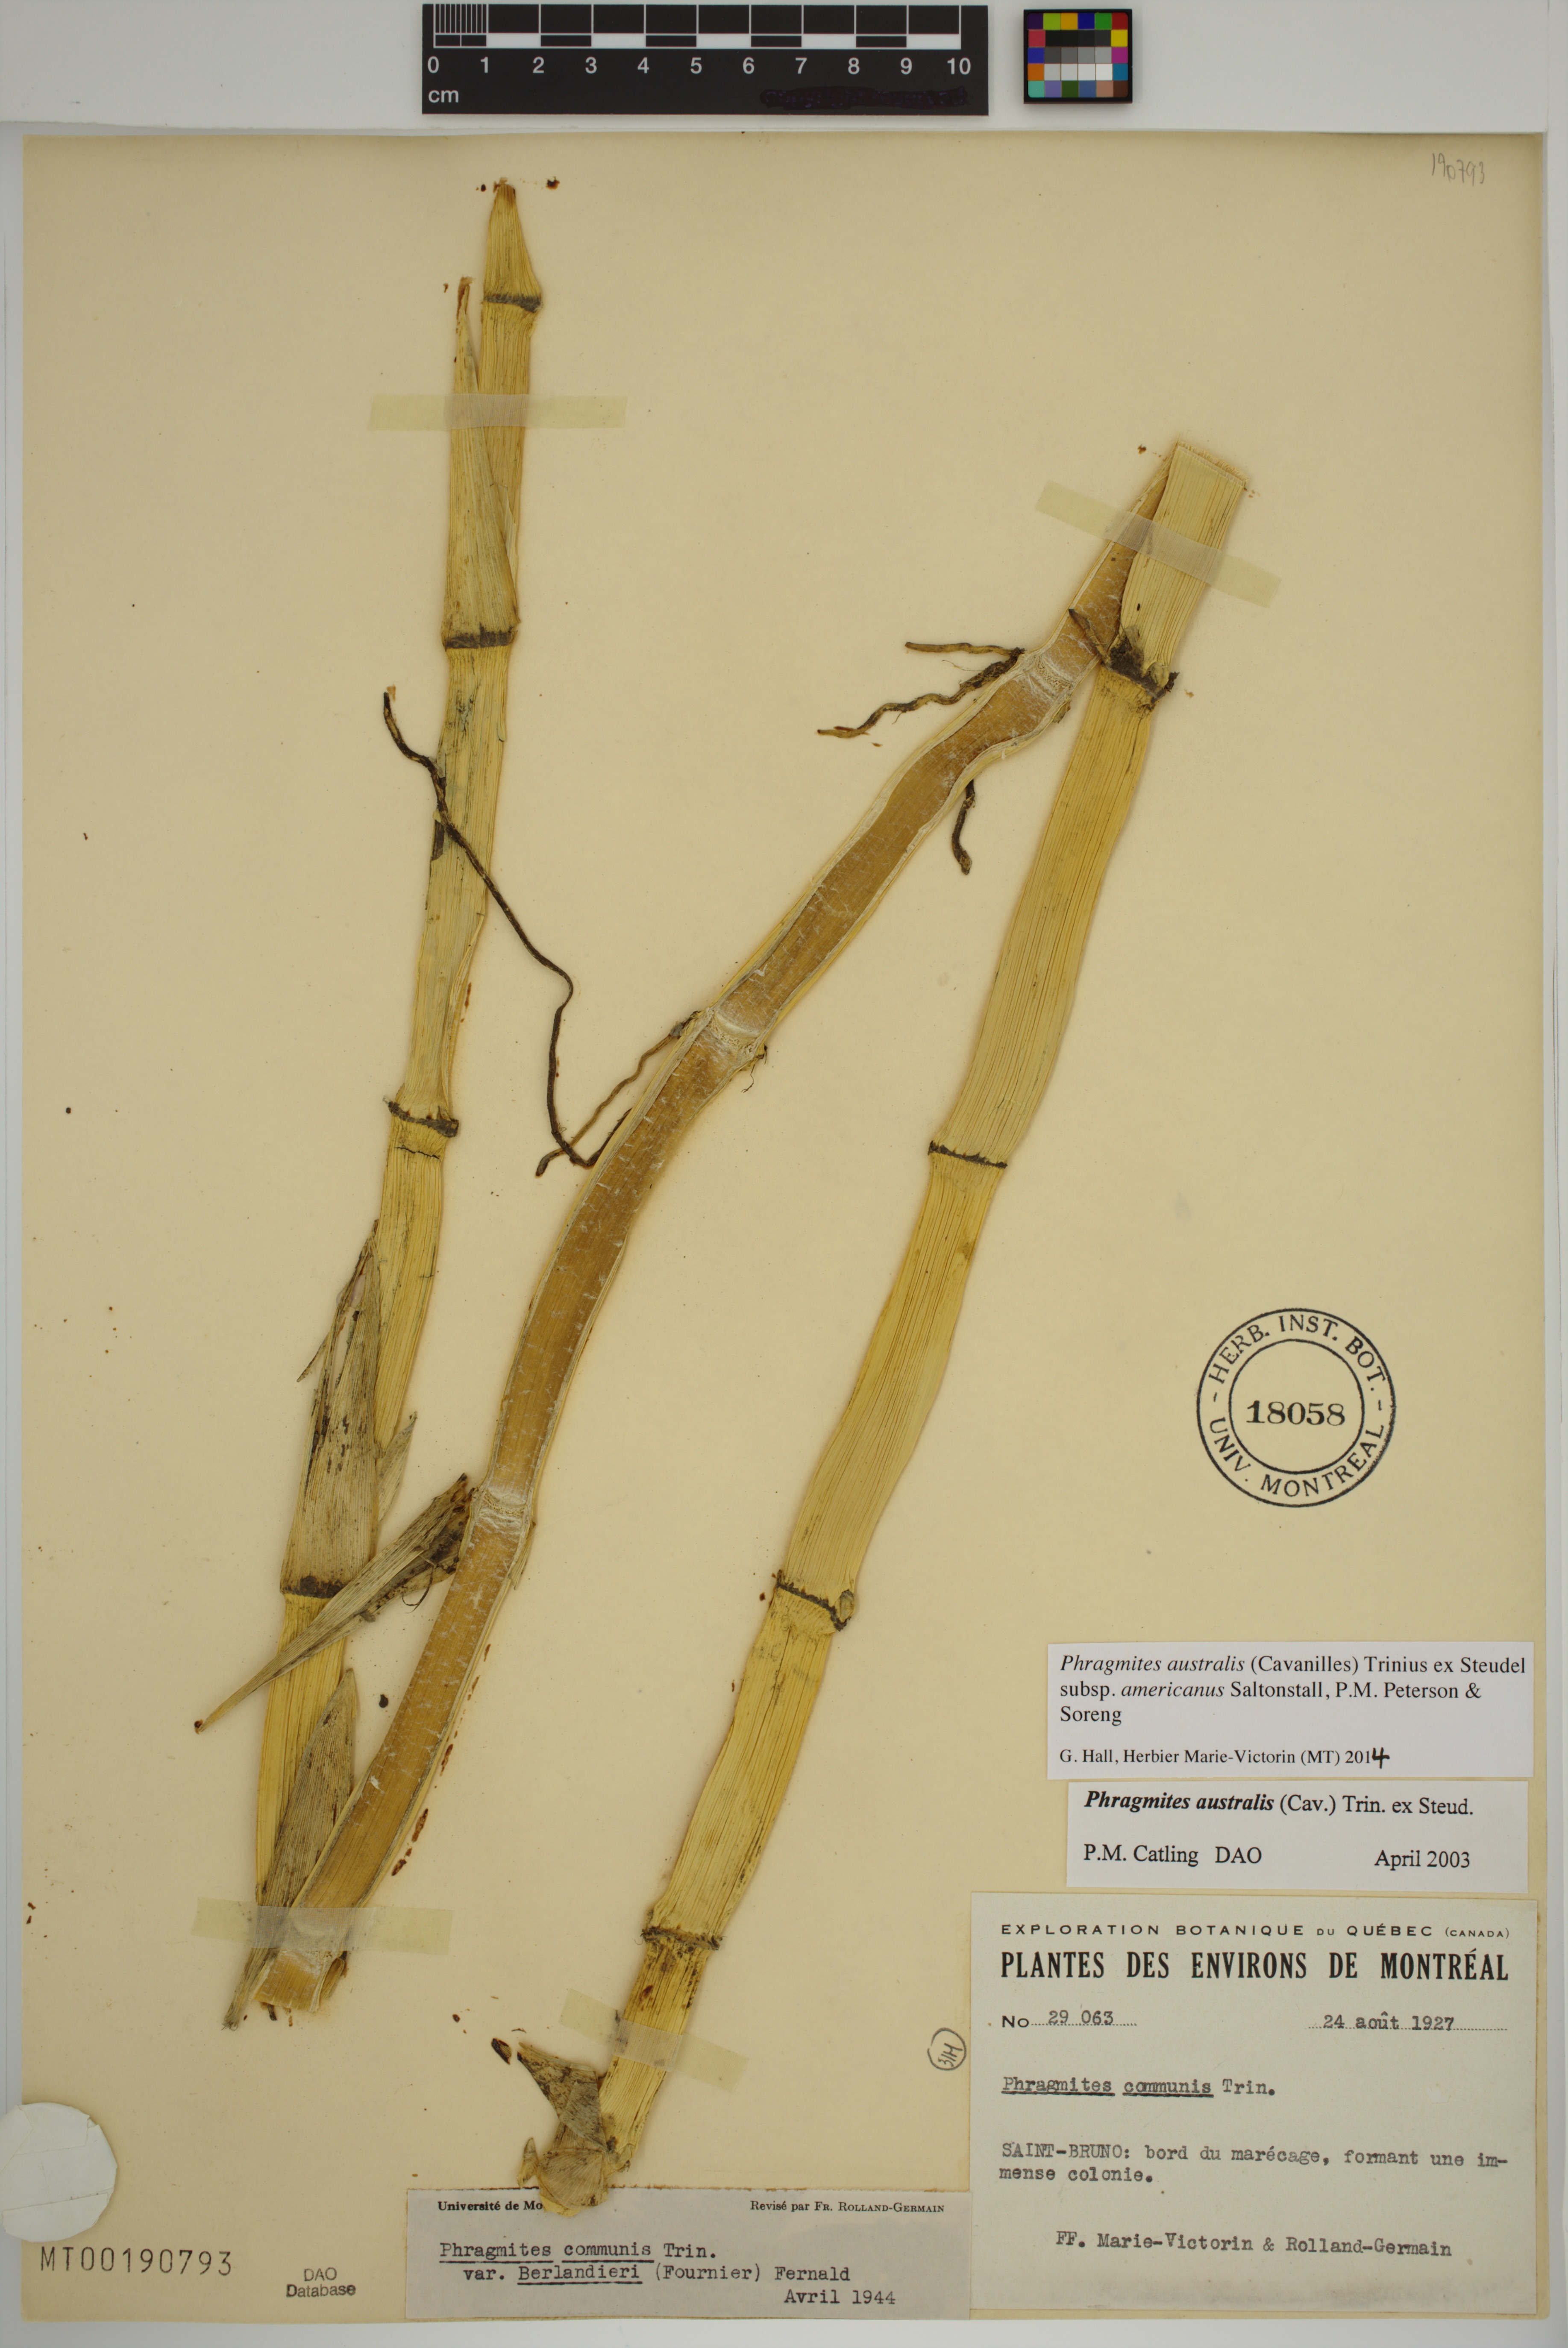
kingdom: Plantae
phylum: Tracheophyta
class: Liliopsida
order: Poales
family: Poaceae
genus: Phragmites
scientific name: Phragmites australis
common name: Common reed
